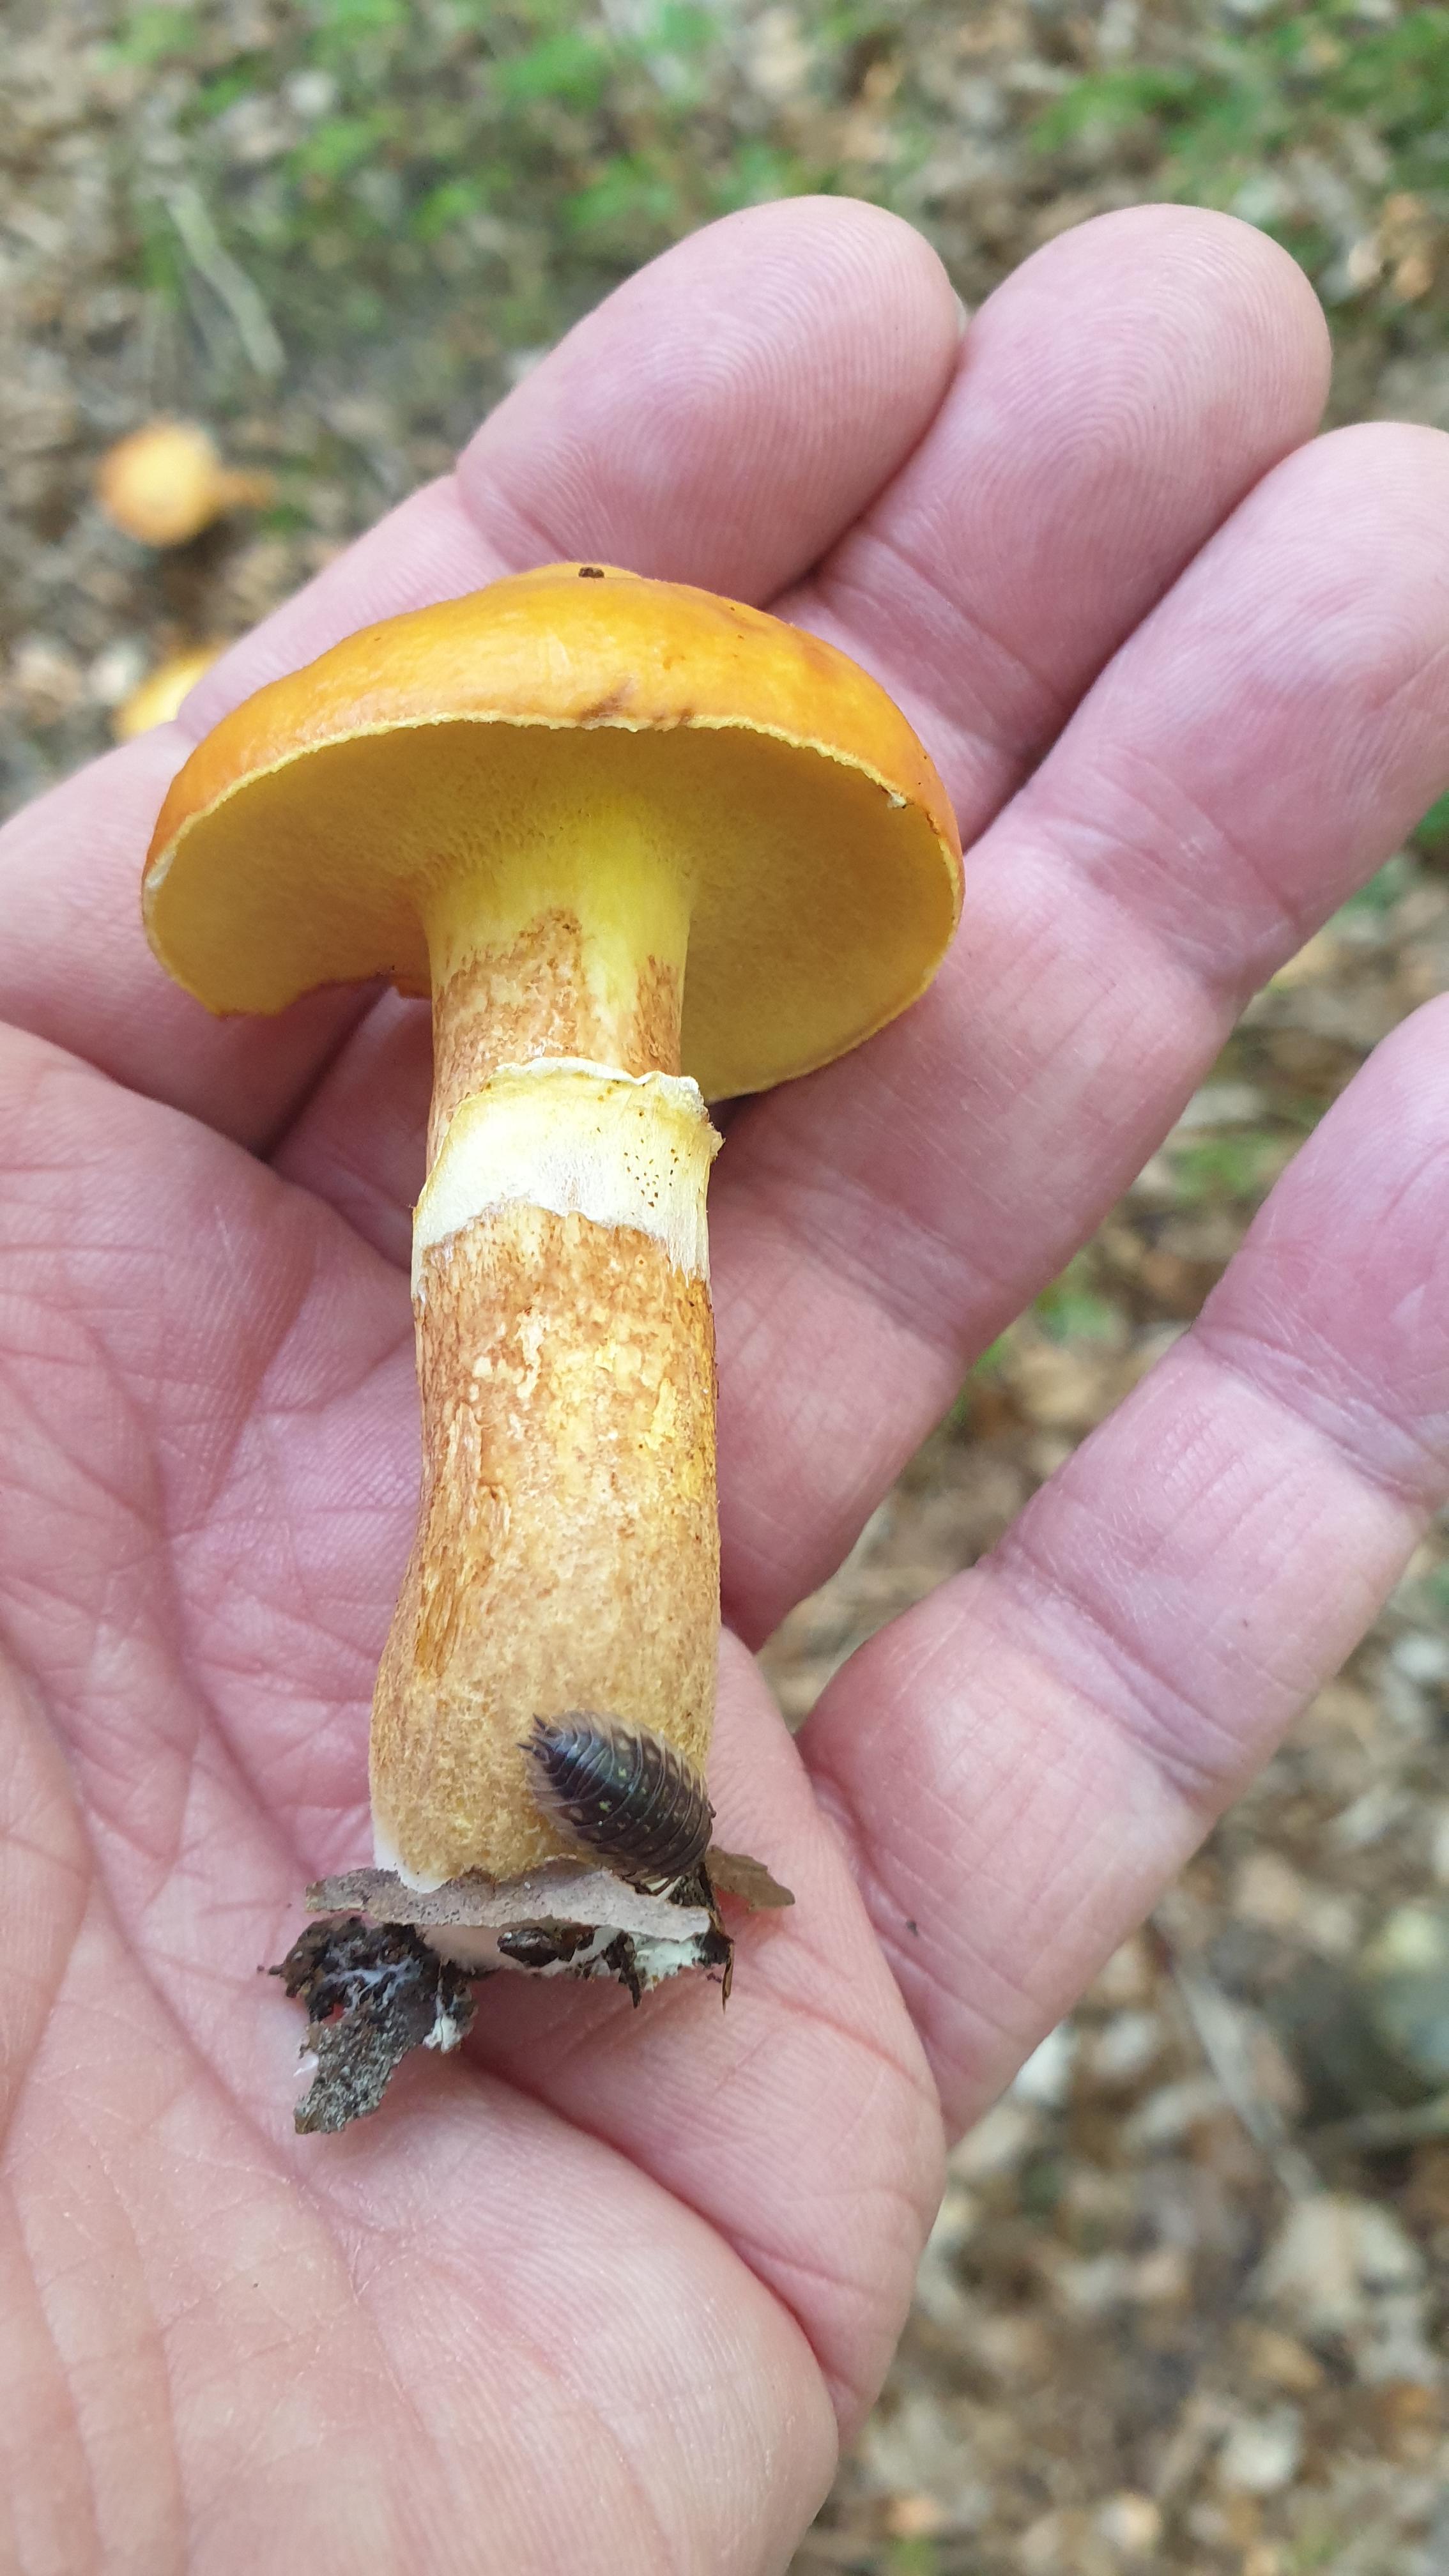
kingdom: Fungi
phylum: Basidiomycota
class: Agaricomycetes
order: Boletales
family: Suillaceae
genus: Suillus
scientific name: Suillus grevillei
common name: lærke-slimrørhat
